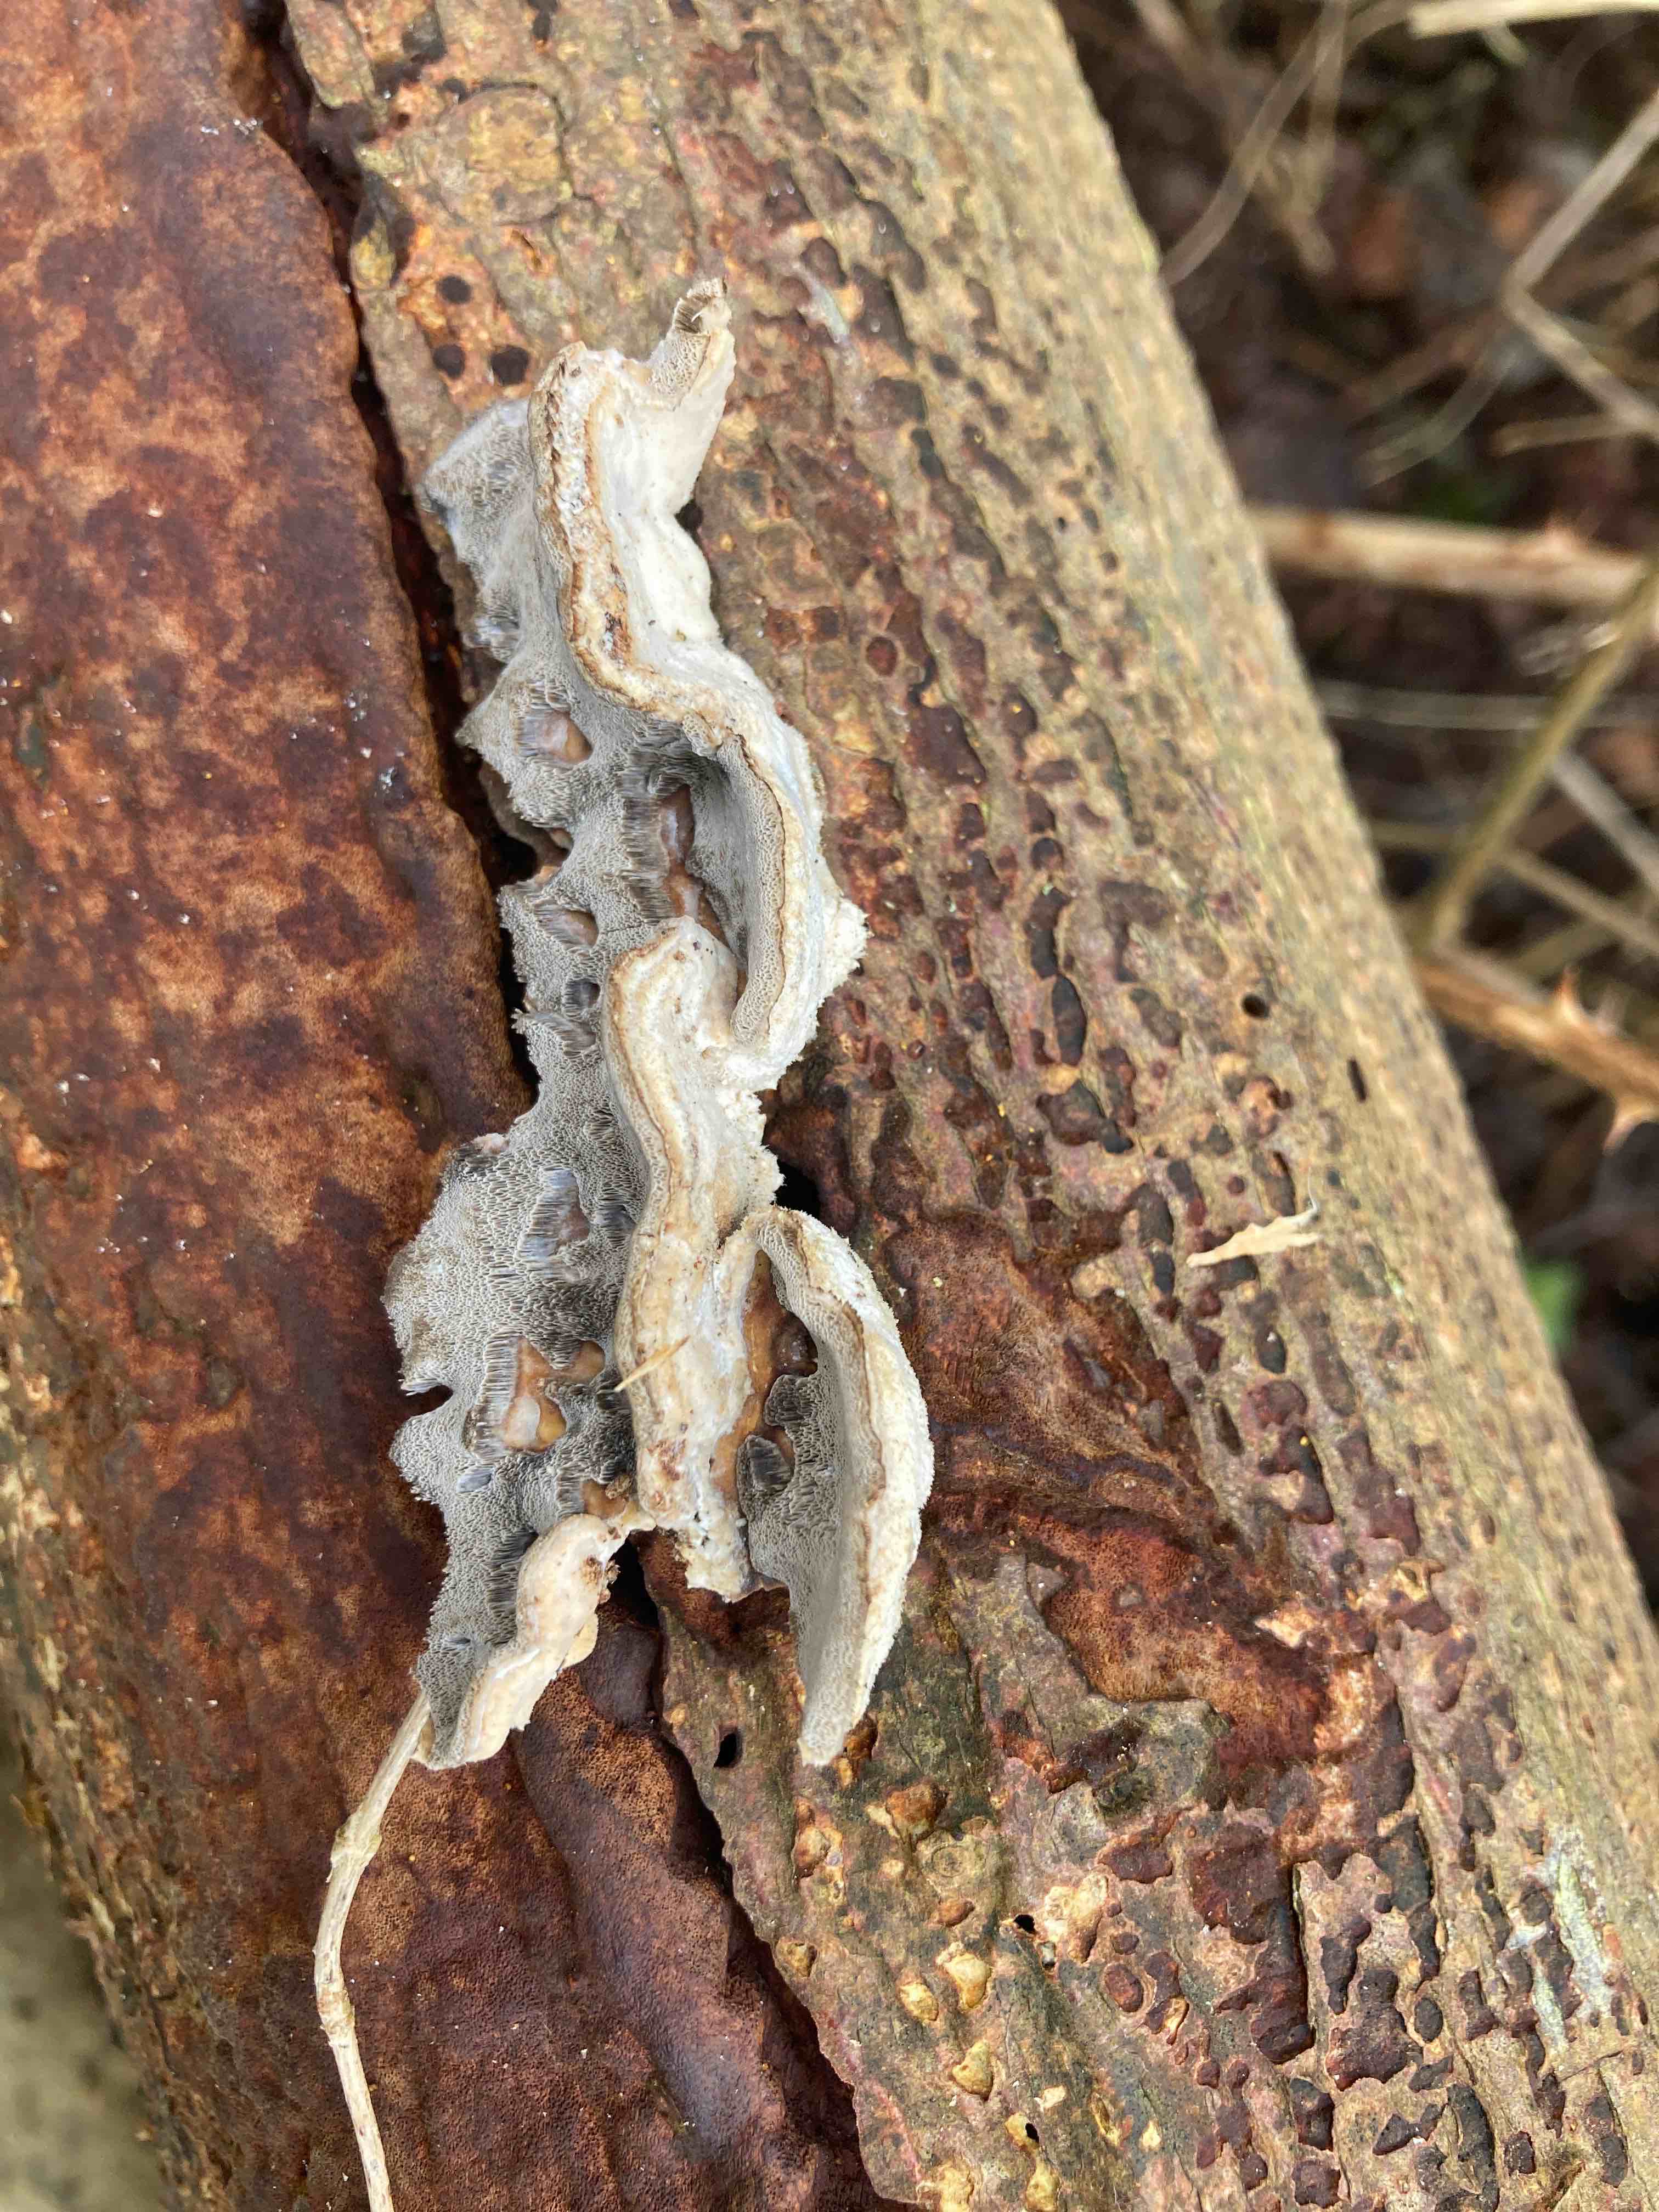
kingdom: Fungi
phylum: Basidiomycota
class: Agaricomycetes
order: Polyporales
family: Phanerochaetaceae
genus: Bjerkandera
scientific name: Bjerkandera adusta
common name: sveden sodporesvamp
